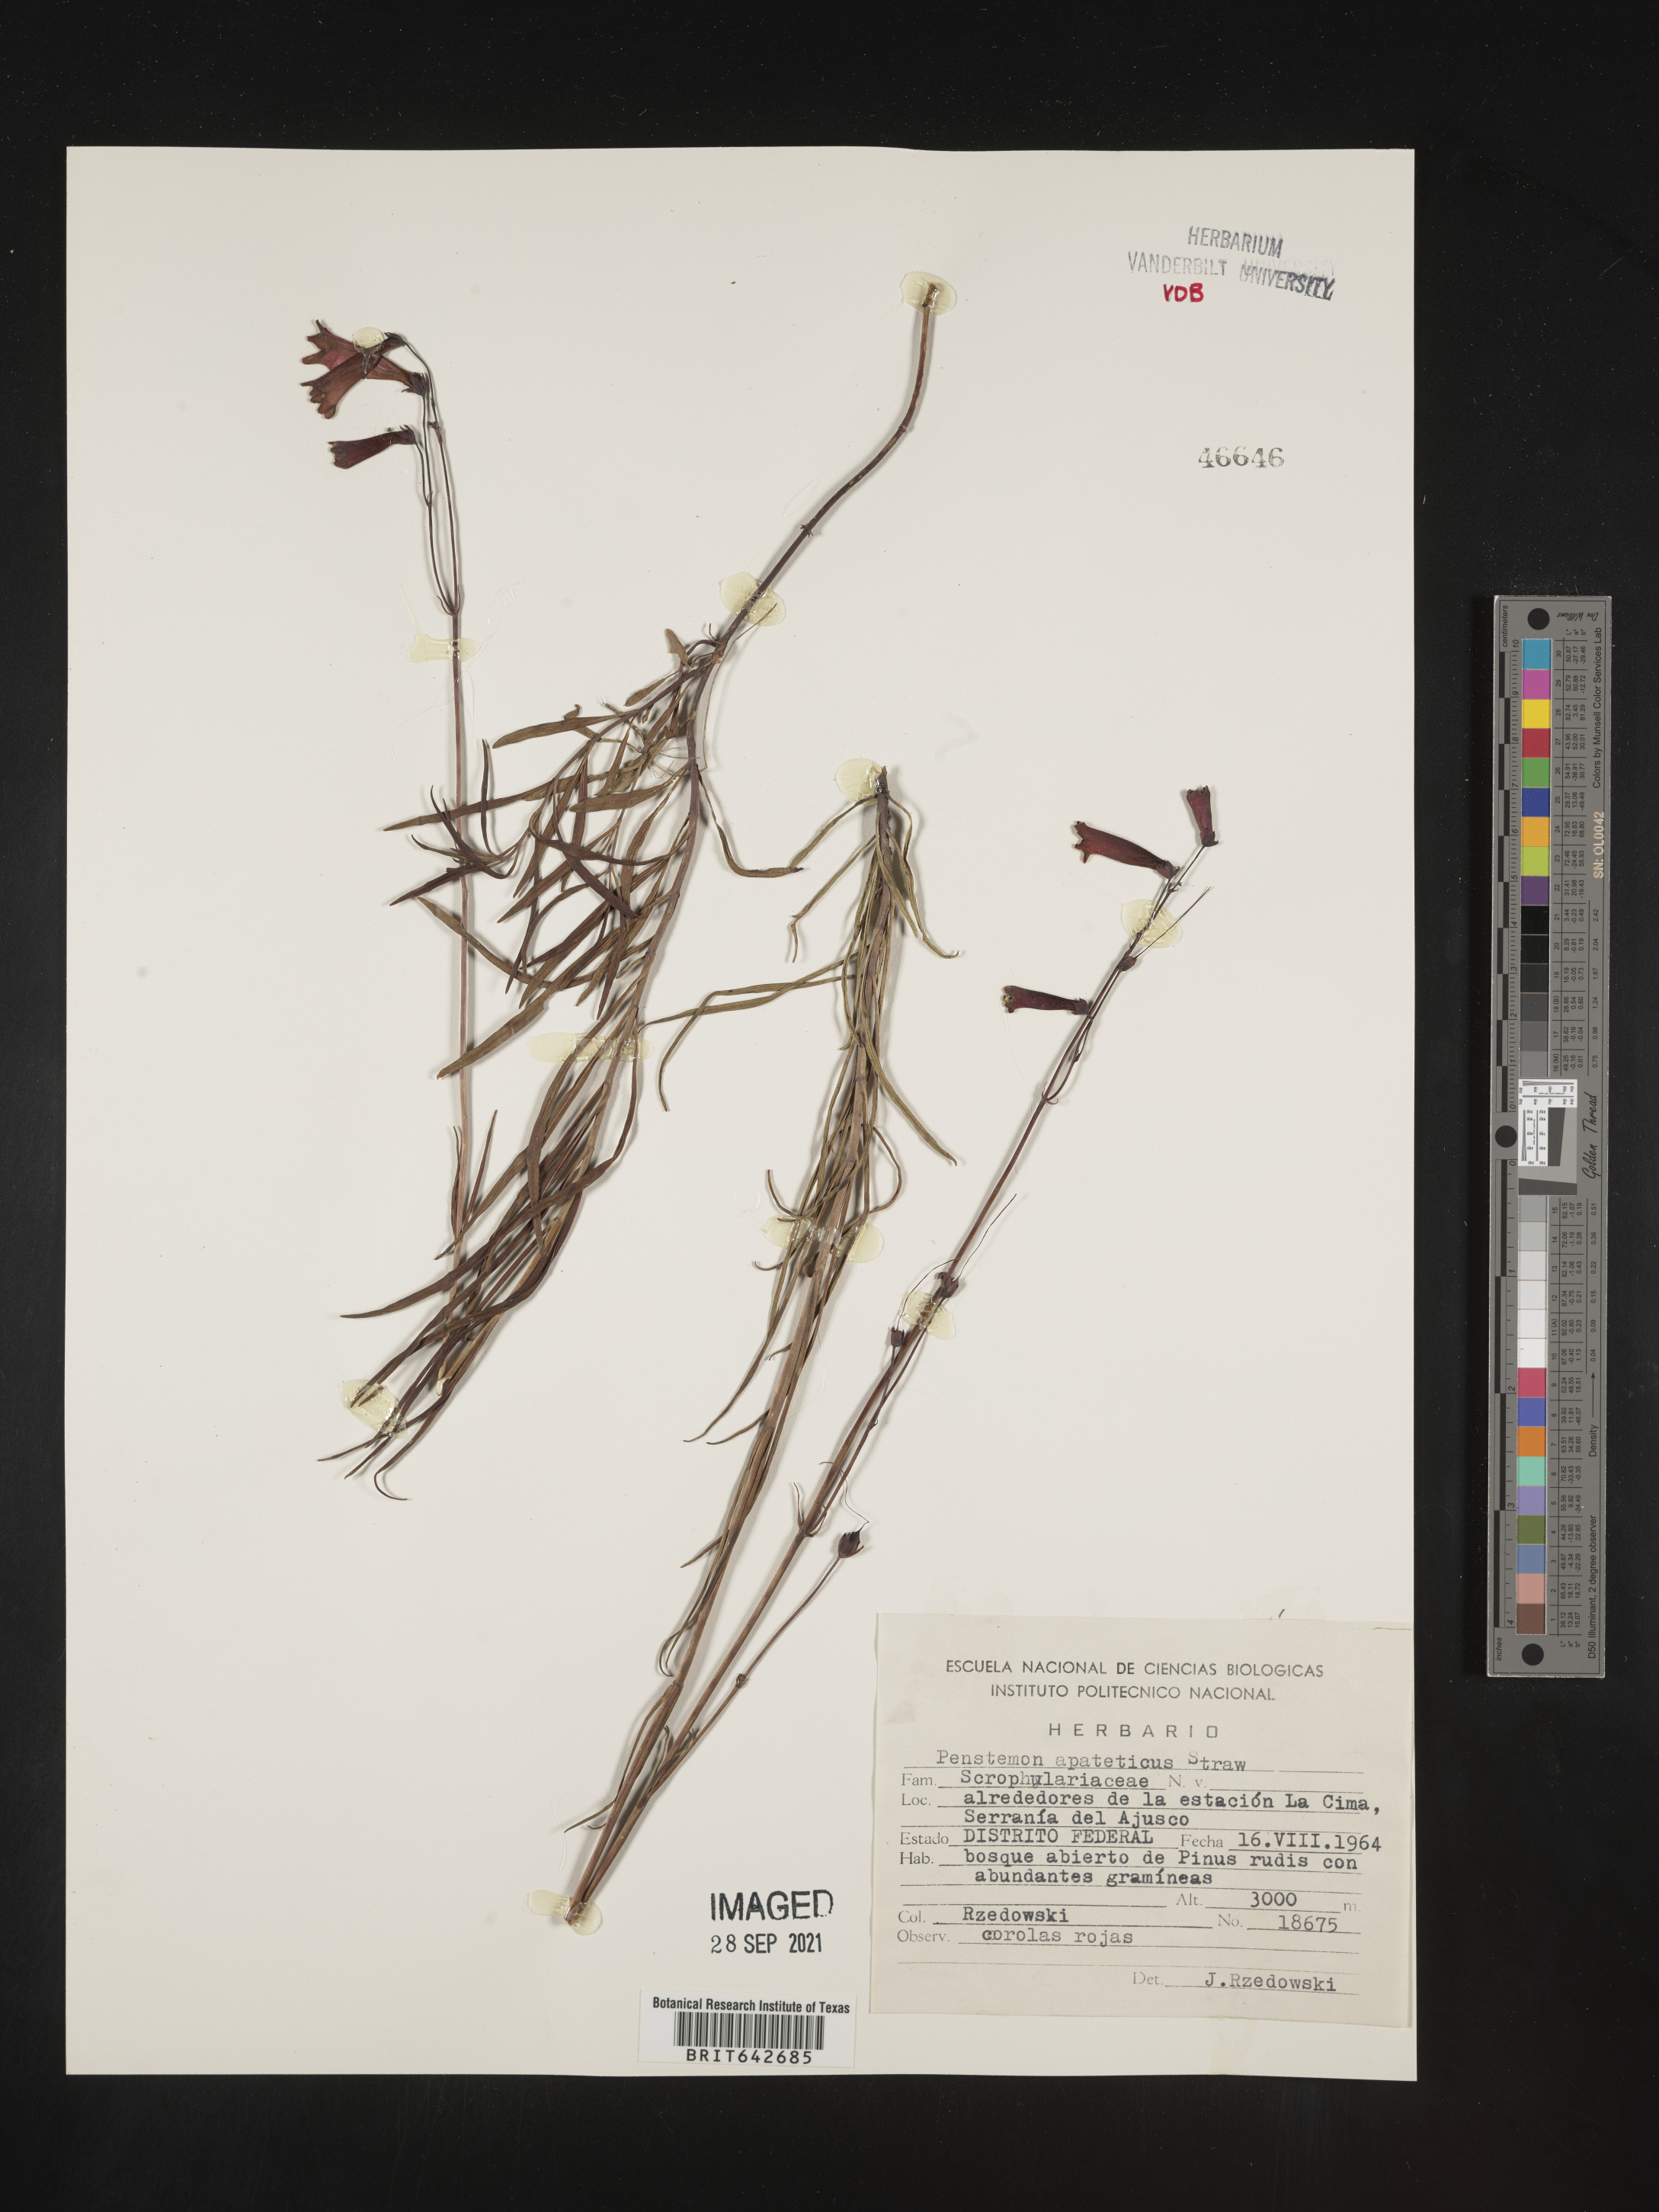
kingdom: Plantae
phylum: Tracheophyta
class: Magnoliopsida
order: Lamiales
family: Plantaginaceae
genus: Penstemon
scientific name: Penstemon
